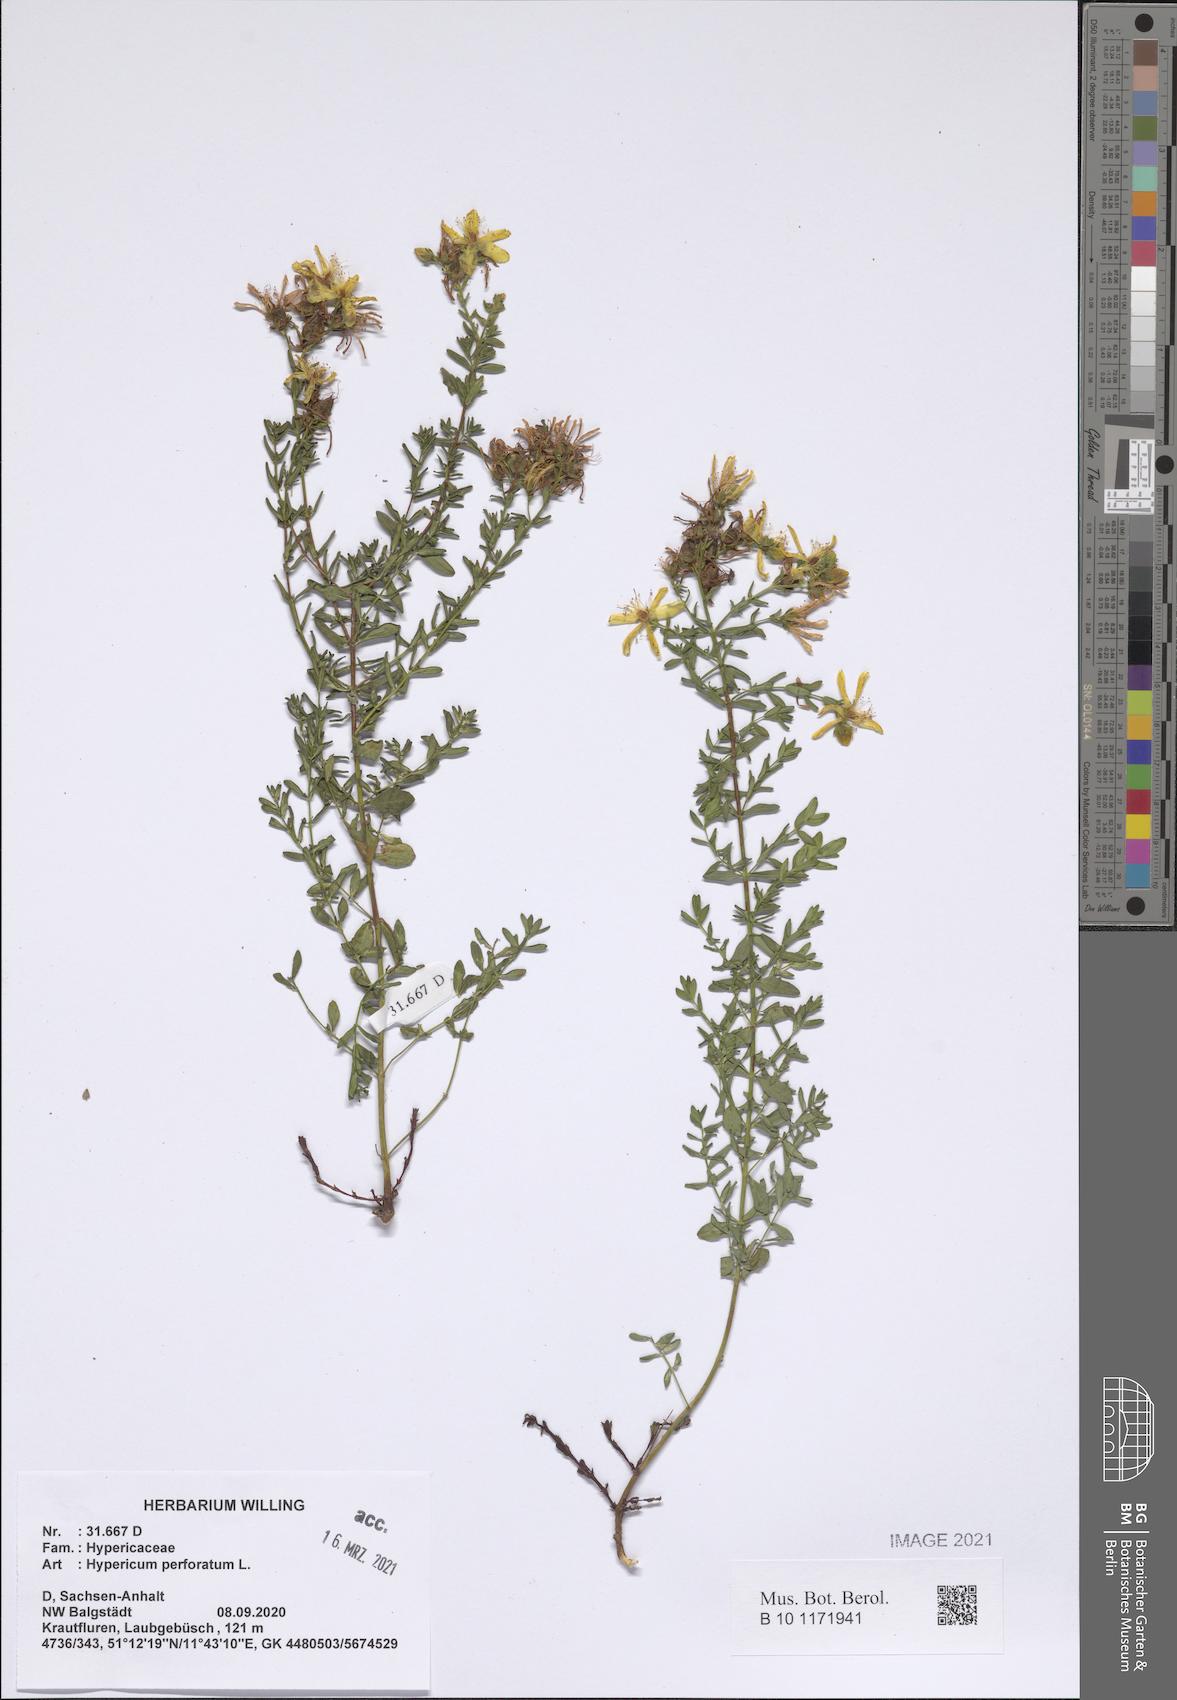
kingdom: Plantae
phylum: Tracheophyta
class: Magnoliopsida
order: Malpighiales
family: Hypericaceae
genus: Hypericum
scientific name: Hypericum perforatum
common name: Common st. johnswort
